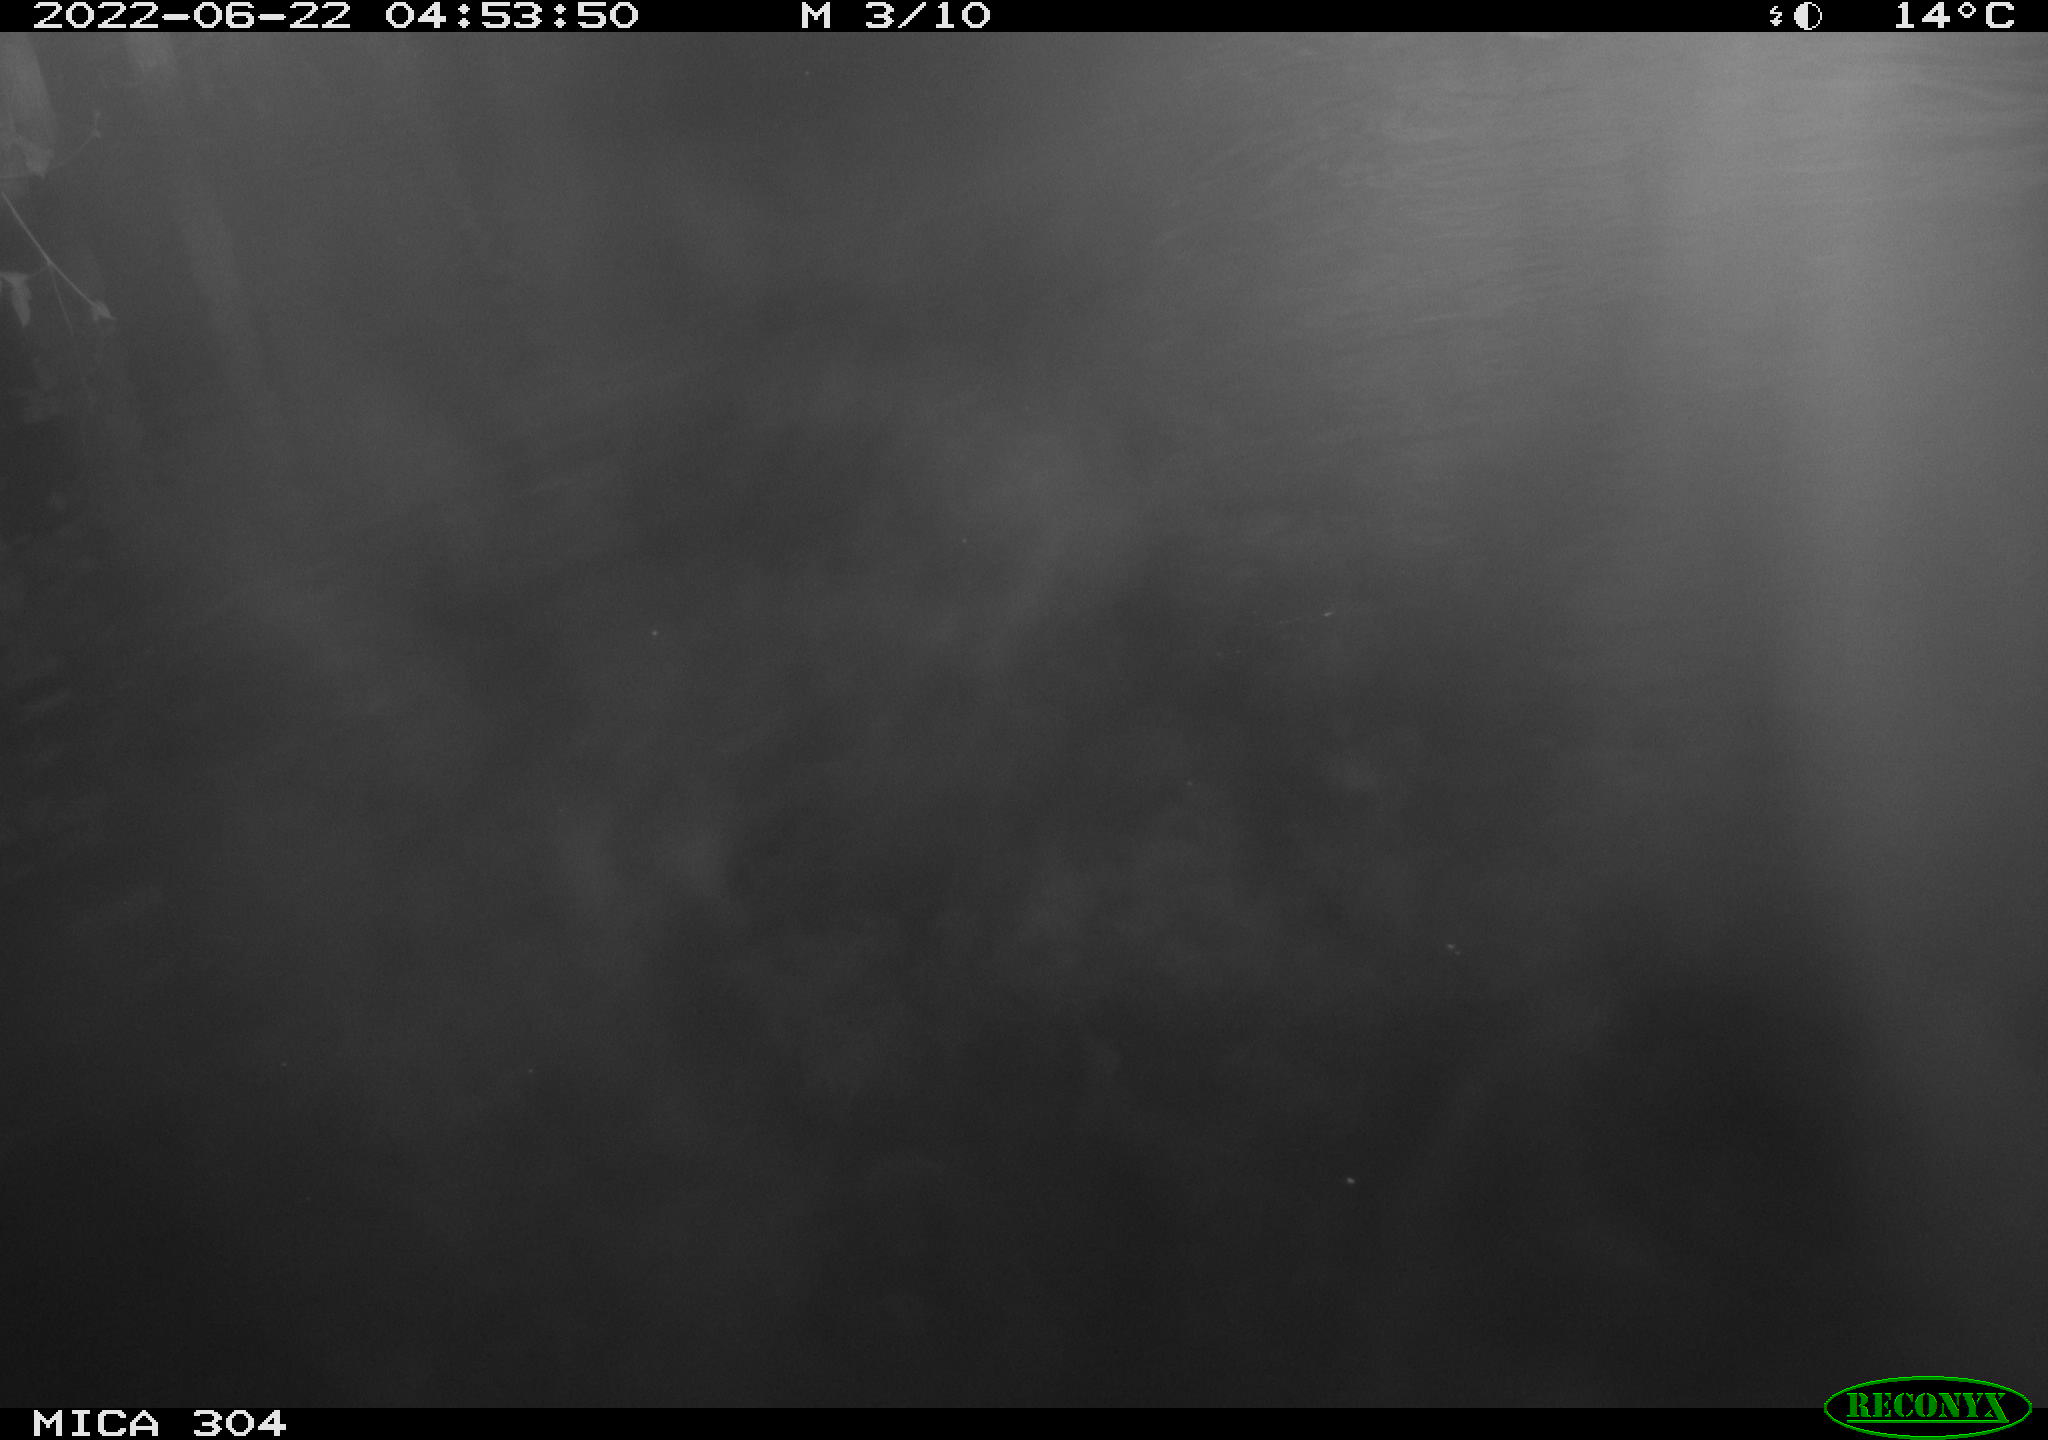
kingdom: Animalia
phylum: Chordata
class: Aves
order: Anseriformes
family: Anatidae
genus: Anas
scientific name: Anas platyrhynchos
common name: Mallard
